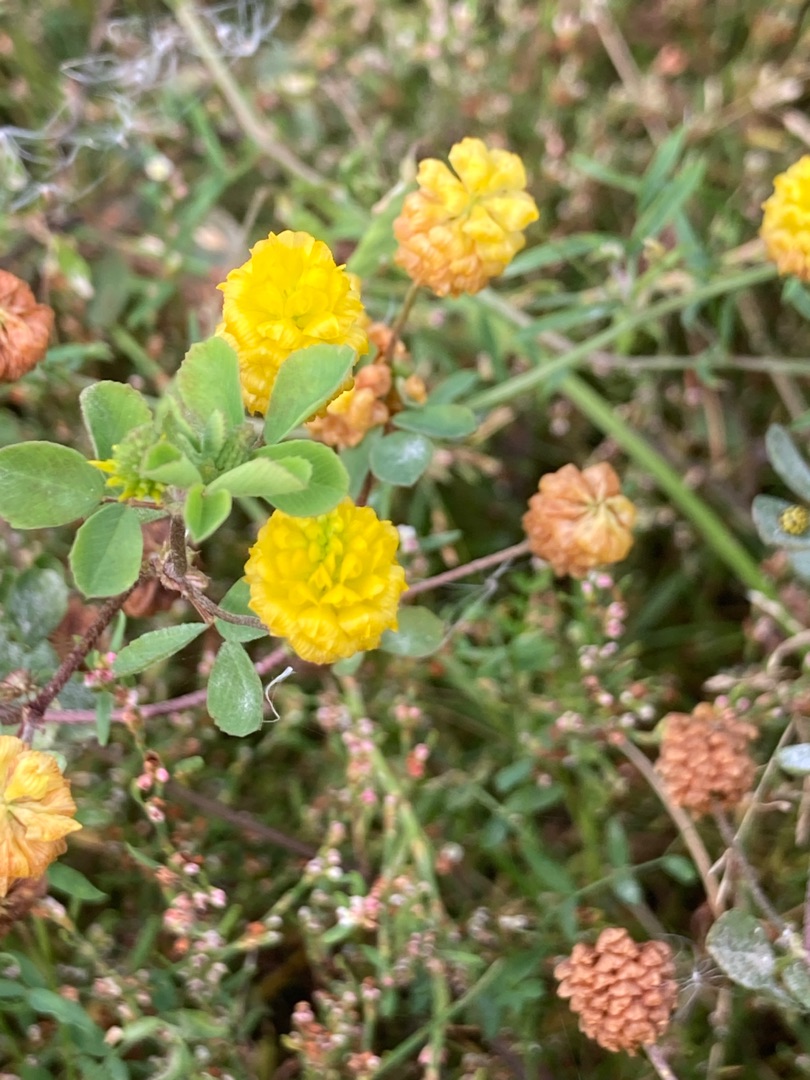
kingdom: Plantae
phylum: Tracheophyta
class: Magnoliopsida
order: Fabales
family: Fabaceae
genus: Trifolium
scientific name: Trifolium campestre
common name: Gul kløver
